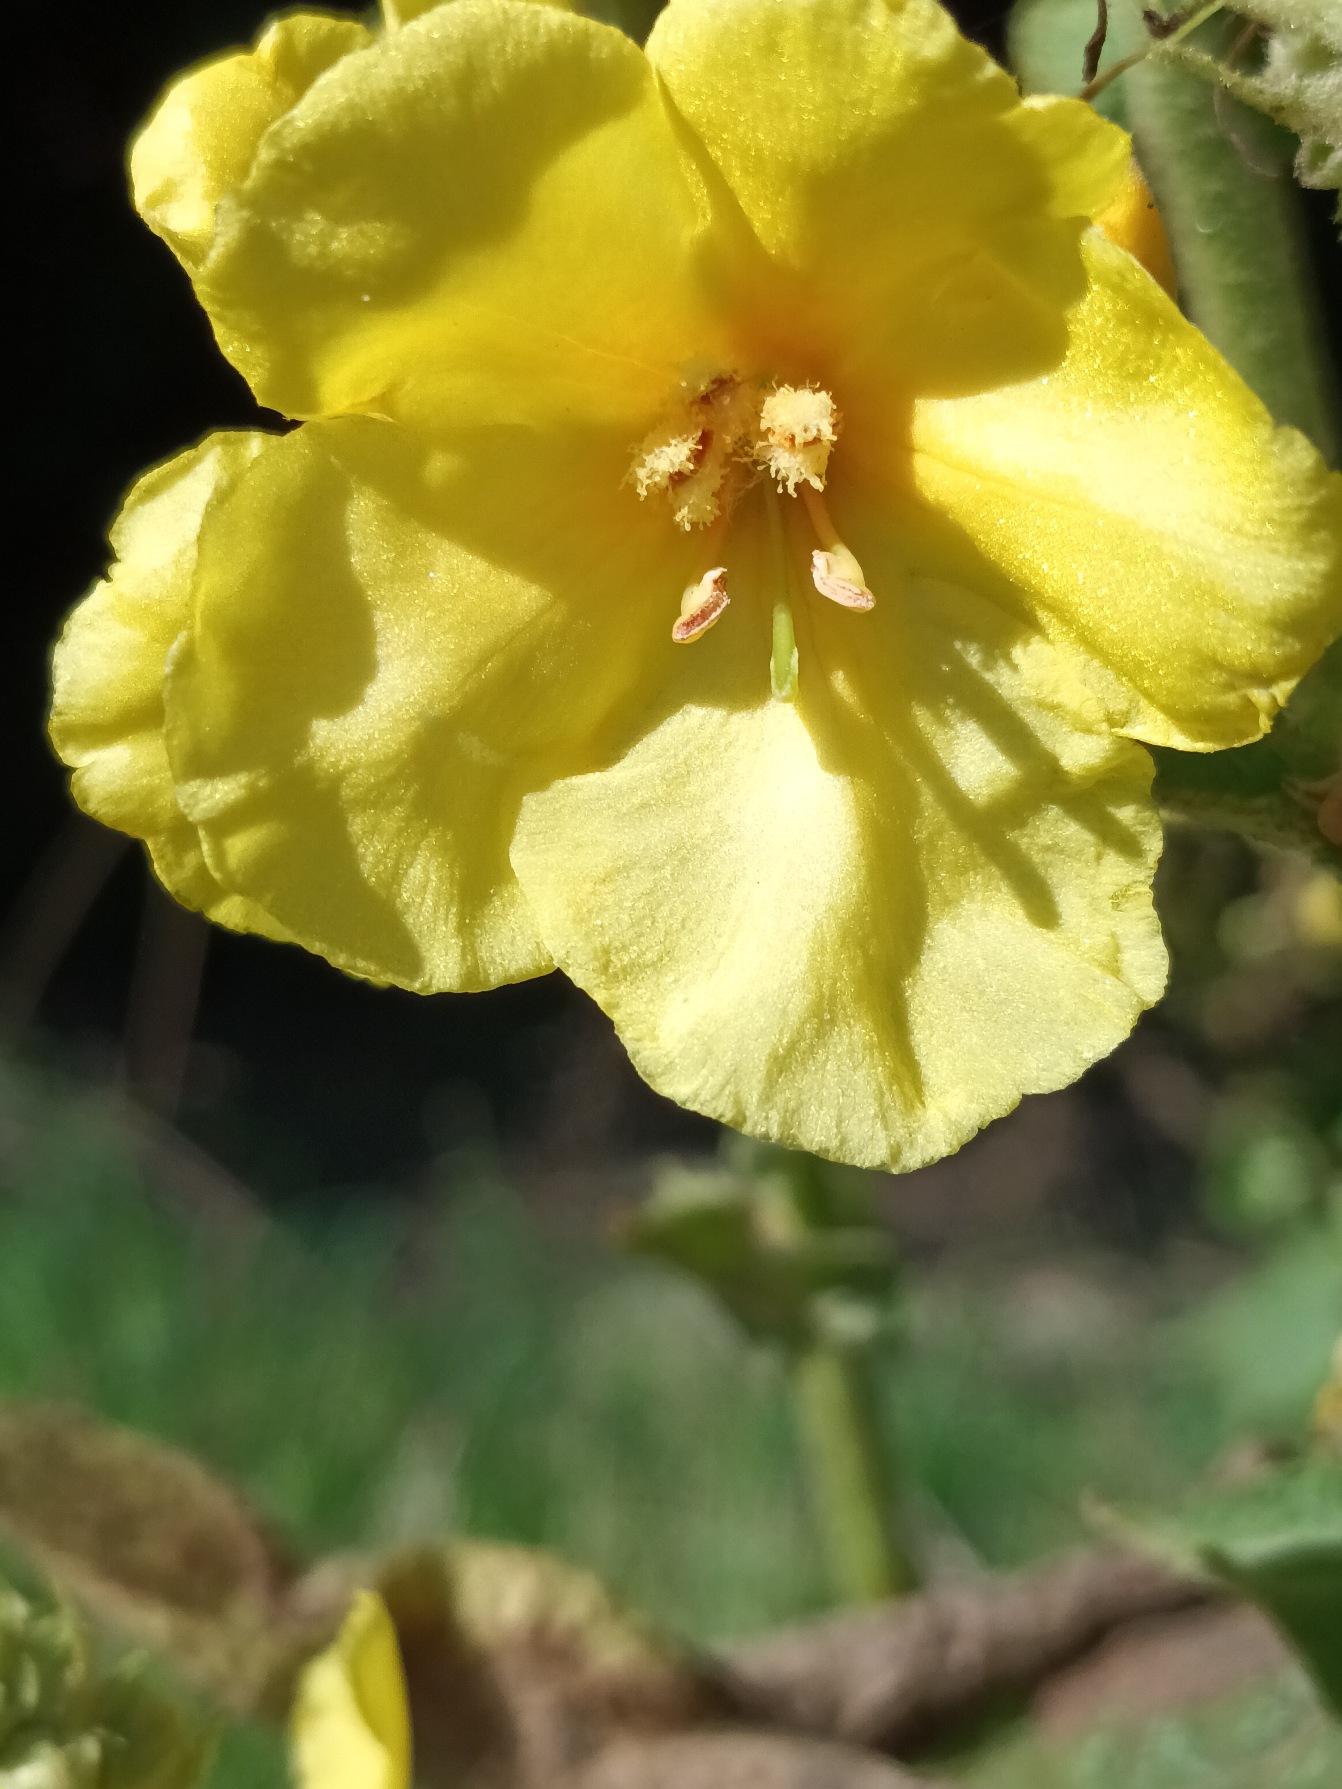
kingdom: Plantae
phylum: Tracheophyta
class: Magnoliopsida
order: Lamiales
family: Scrophulariaceae
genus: Verbascum
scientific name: Verbascum phlomoides
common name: Hjertebladet kongelys
